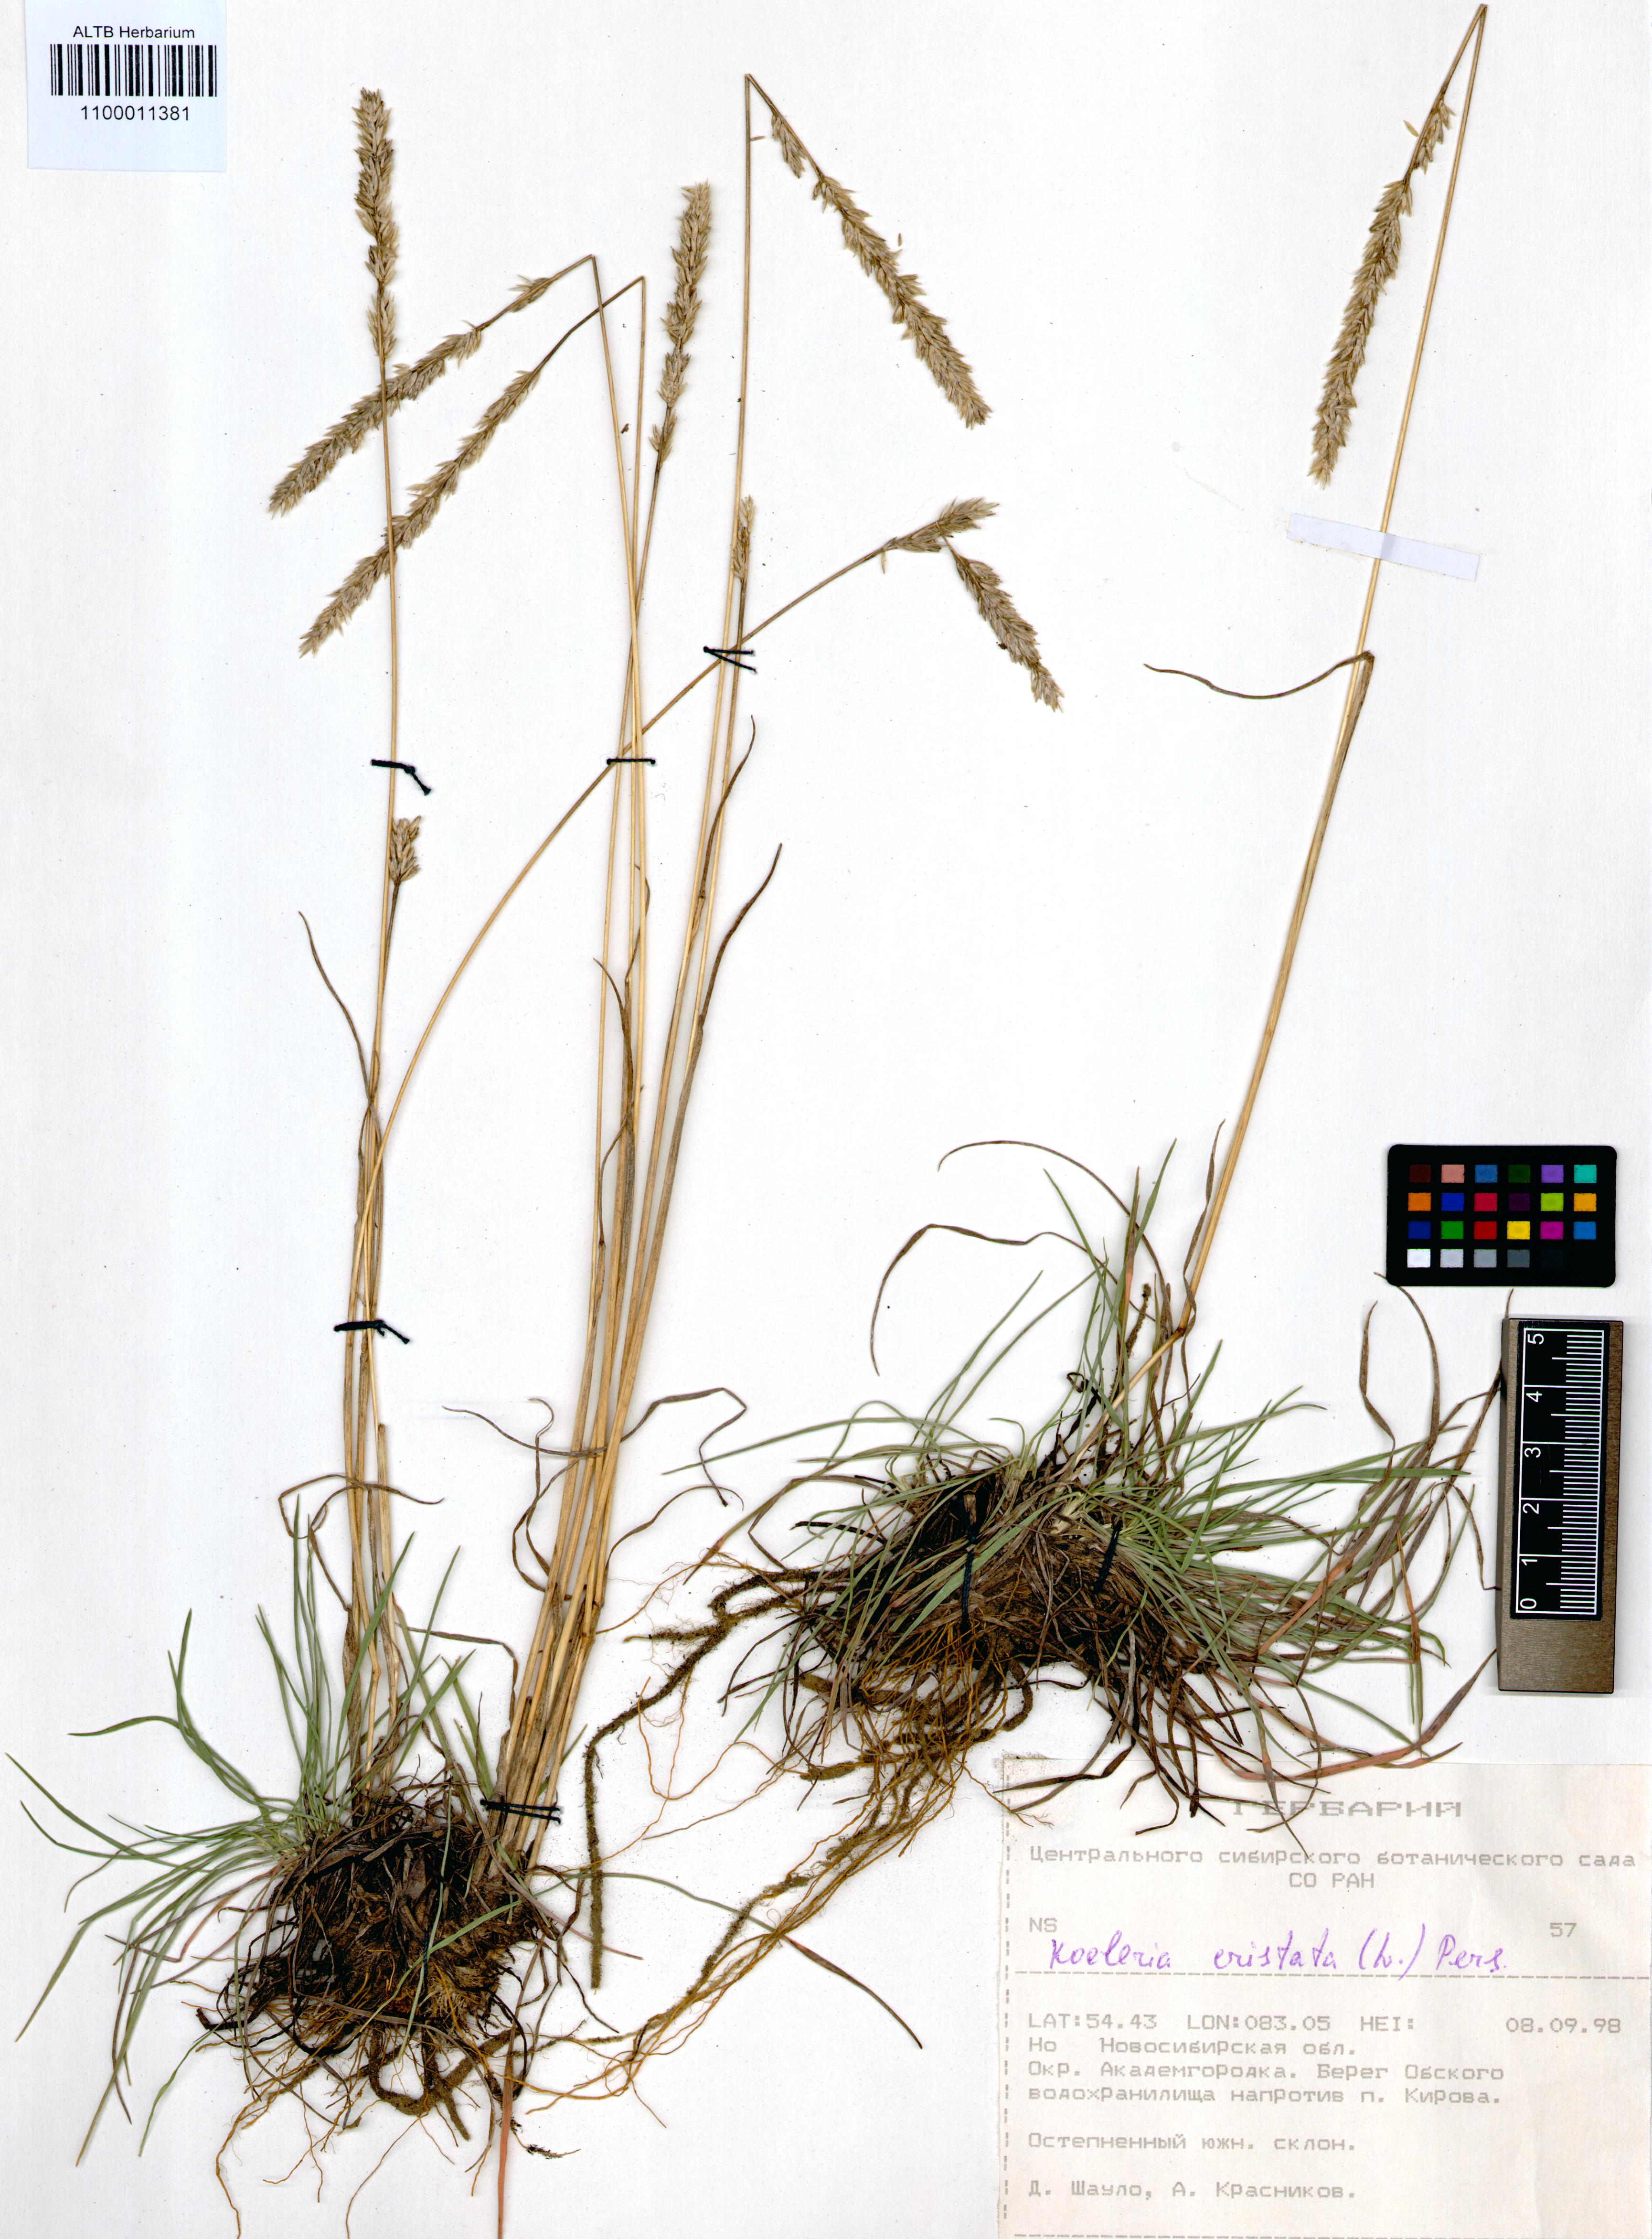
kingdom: Plantae
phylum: Tracheophyta
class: Liliopsida
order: Poales
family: Poaceae
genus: Koeleria
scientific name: Koeleria pyramidata
